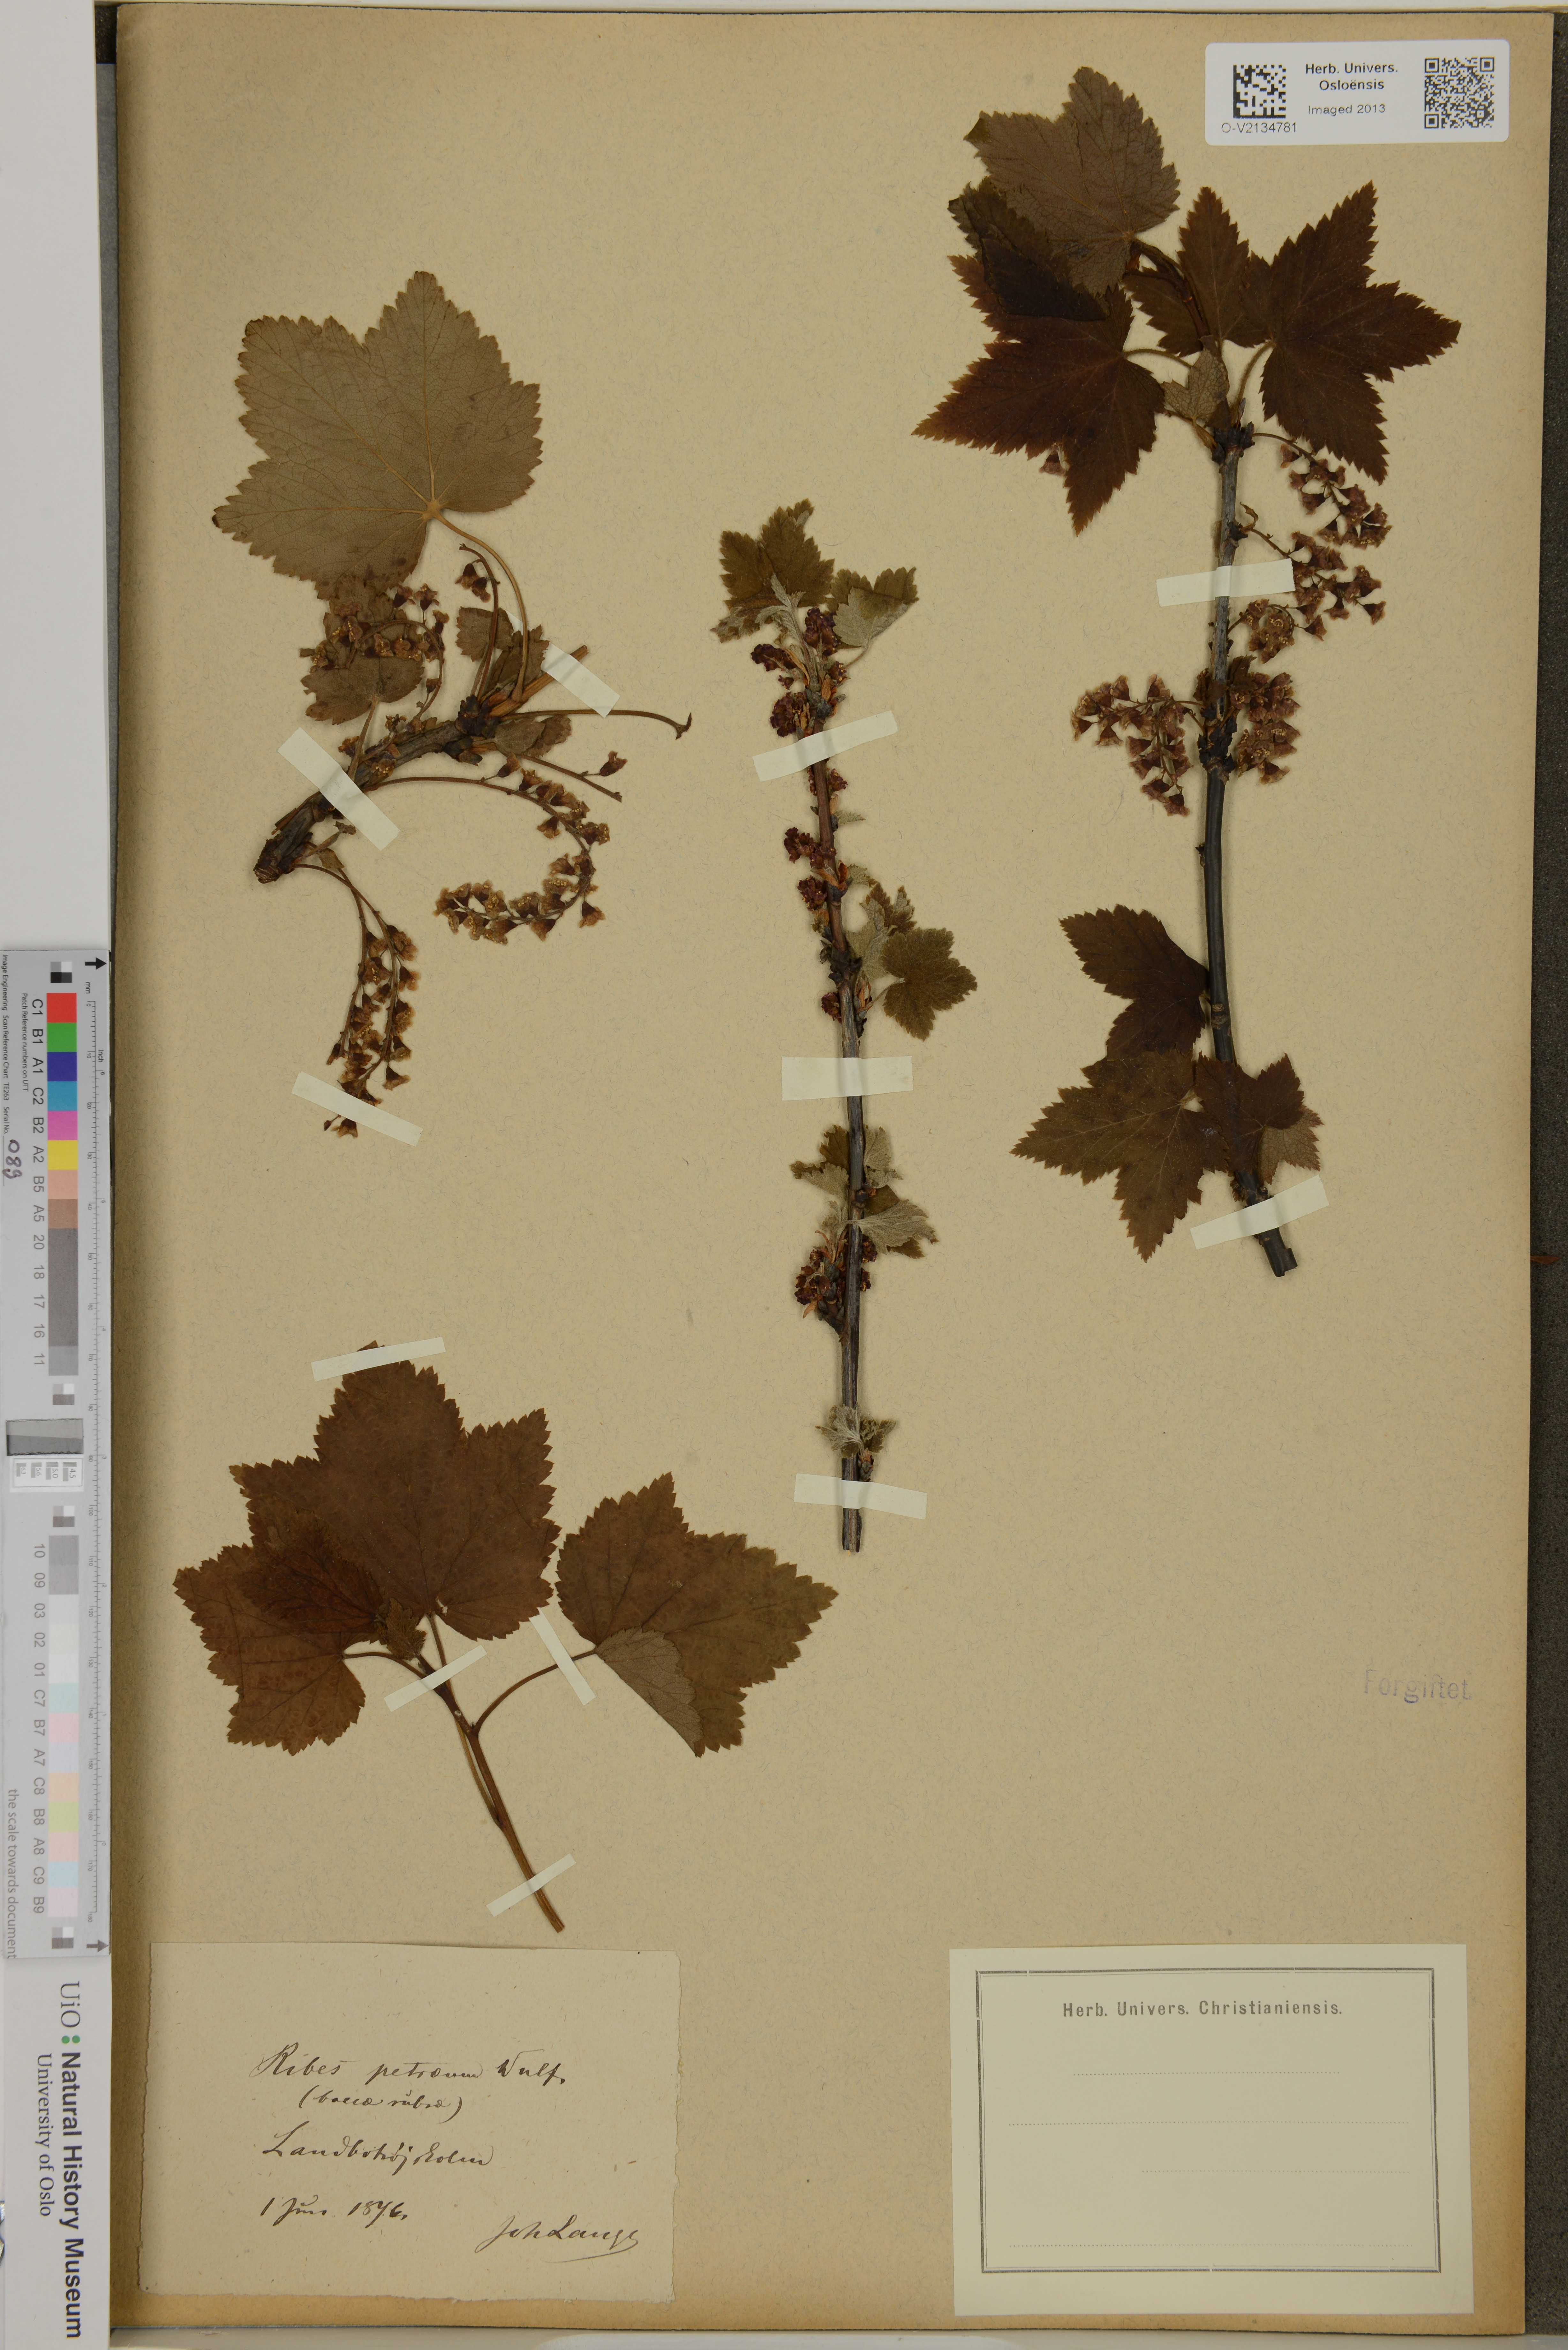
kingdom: Plantae
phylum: Tracheophyta
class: Magnoliopsida
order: Saxifragales
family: Grossulariaceae
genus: Ribes
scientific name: Ribes petraeum
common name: Rock currant
